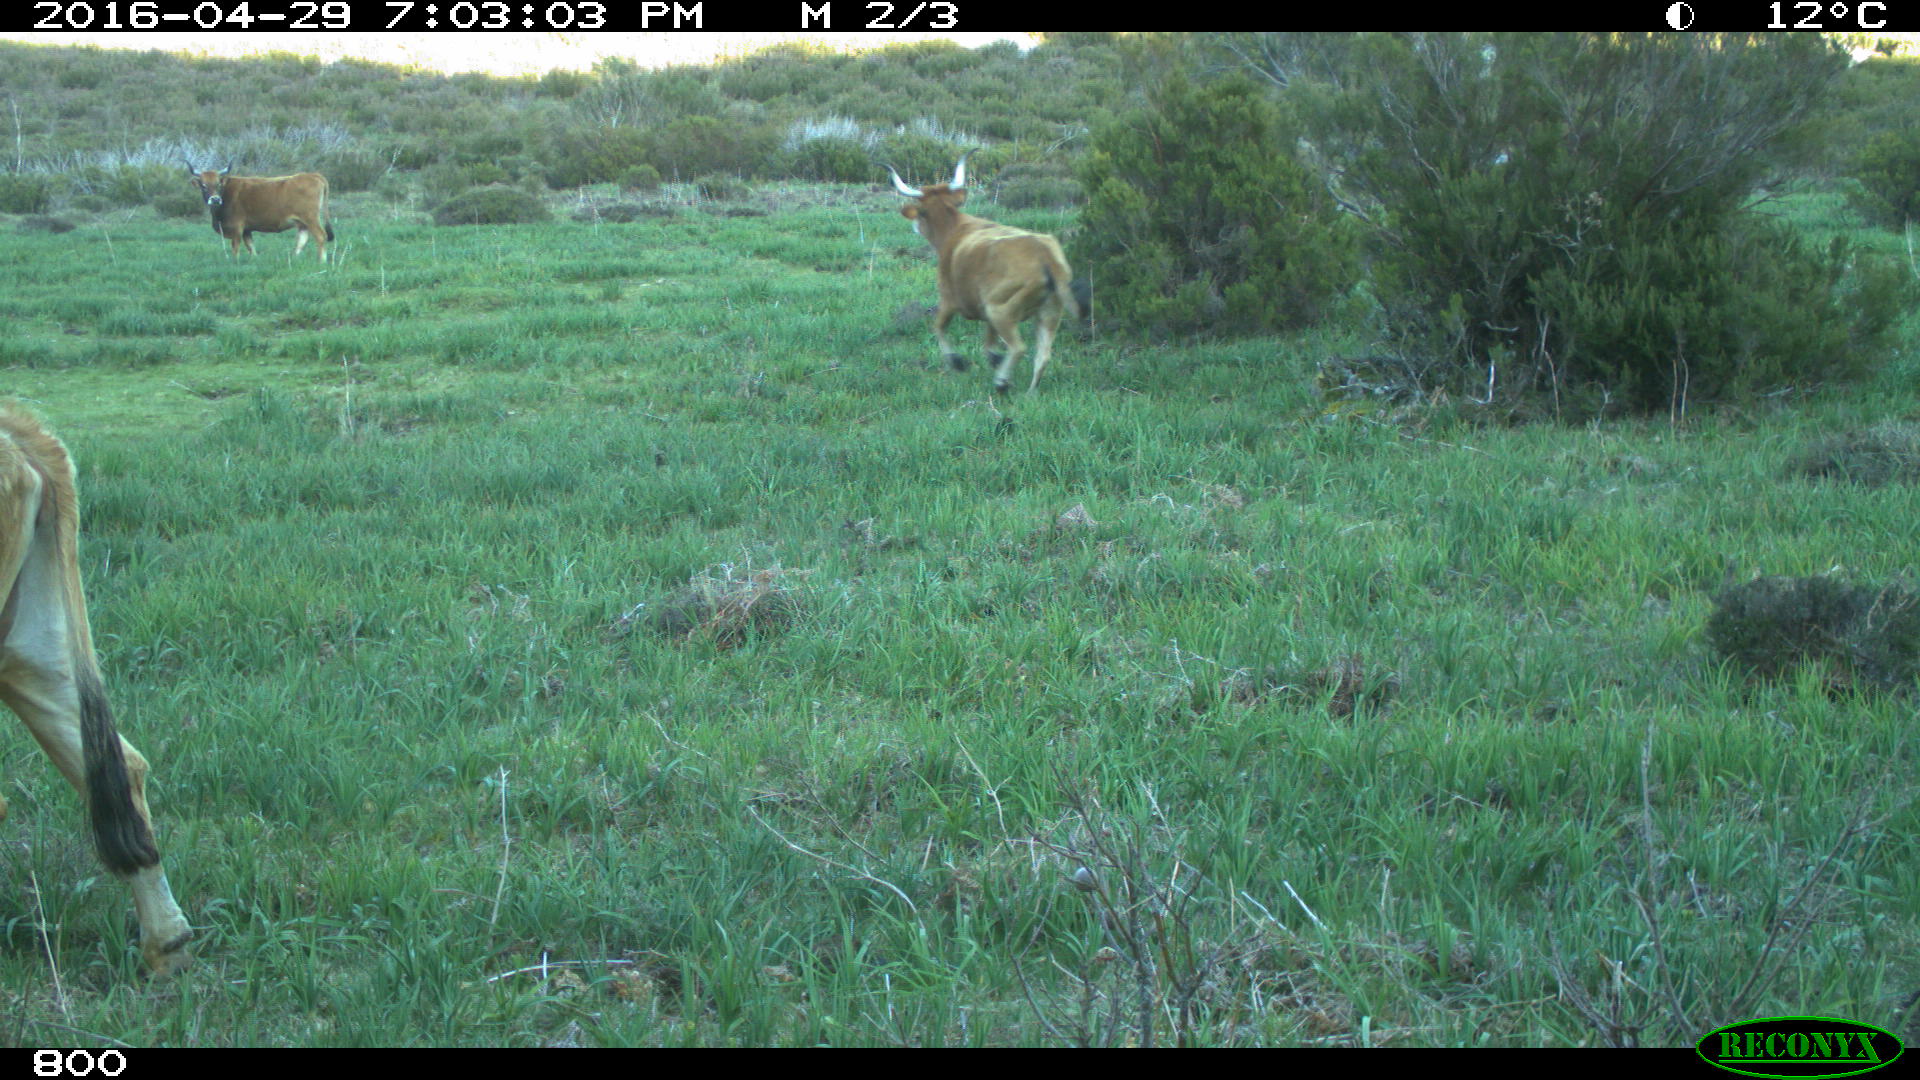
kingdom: Animalia
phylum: Chordata
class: Mammalia
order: Artiodactyla
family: Bovidae
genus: Bos
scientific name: Bos taurus
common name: Domesticated cattle
